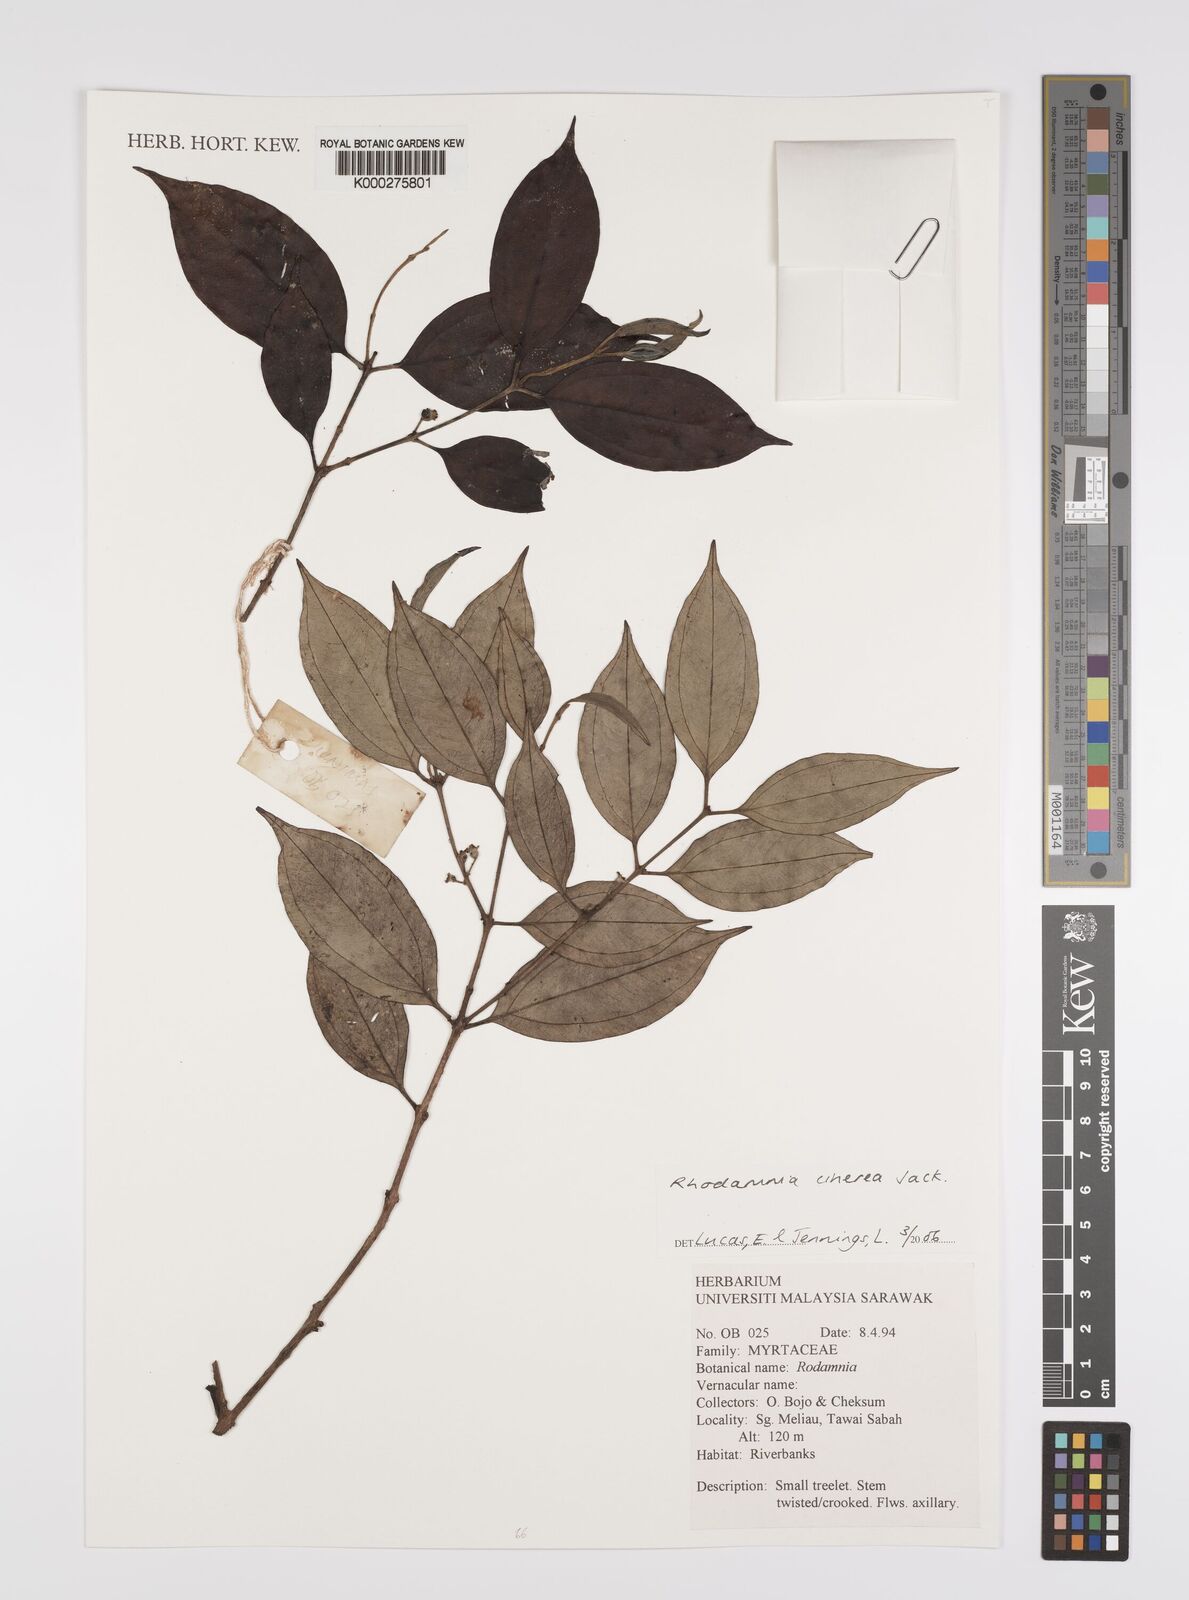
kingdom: Plantae
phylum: Tracheophyta
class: Magnoliopsida
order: Myrtales
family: Myrtaceae
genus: Rhodamnia
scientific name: Rhodamnia cinerea
